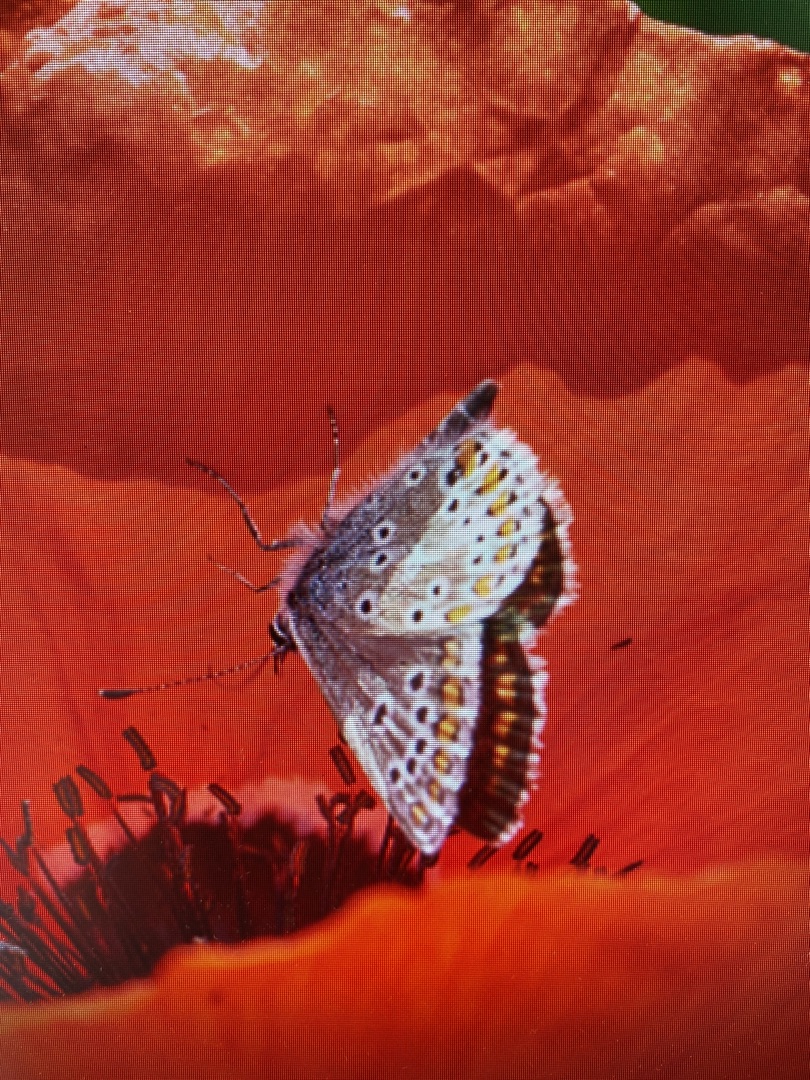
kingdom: Animalia
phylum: Arthropoda
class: Insecta
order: Lepidoptera
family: Lycaenidae
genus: Aricia
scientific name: Aricia agestis
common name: Rødplettet blåfugl
